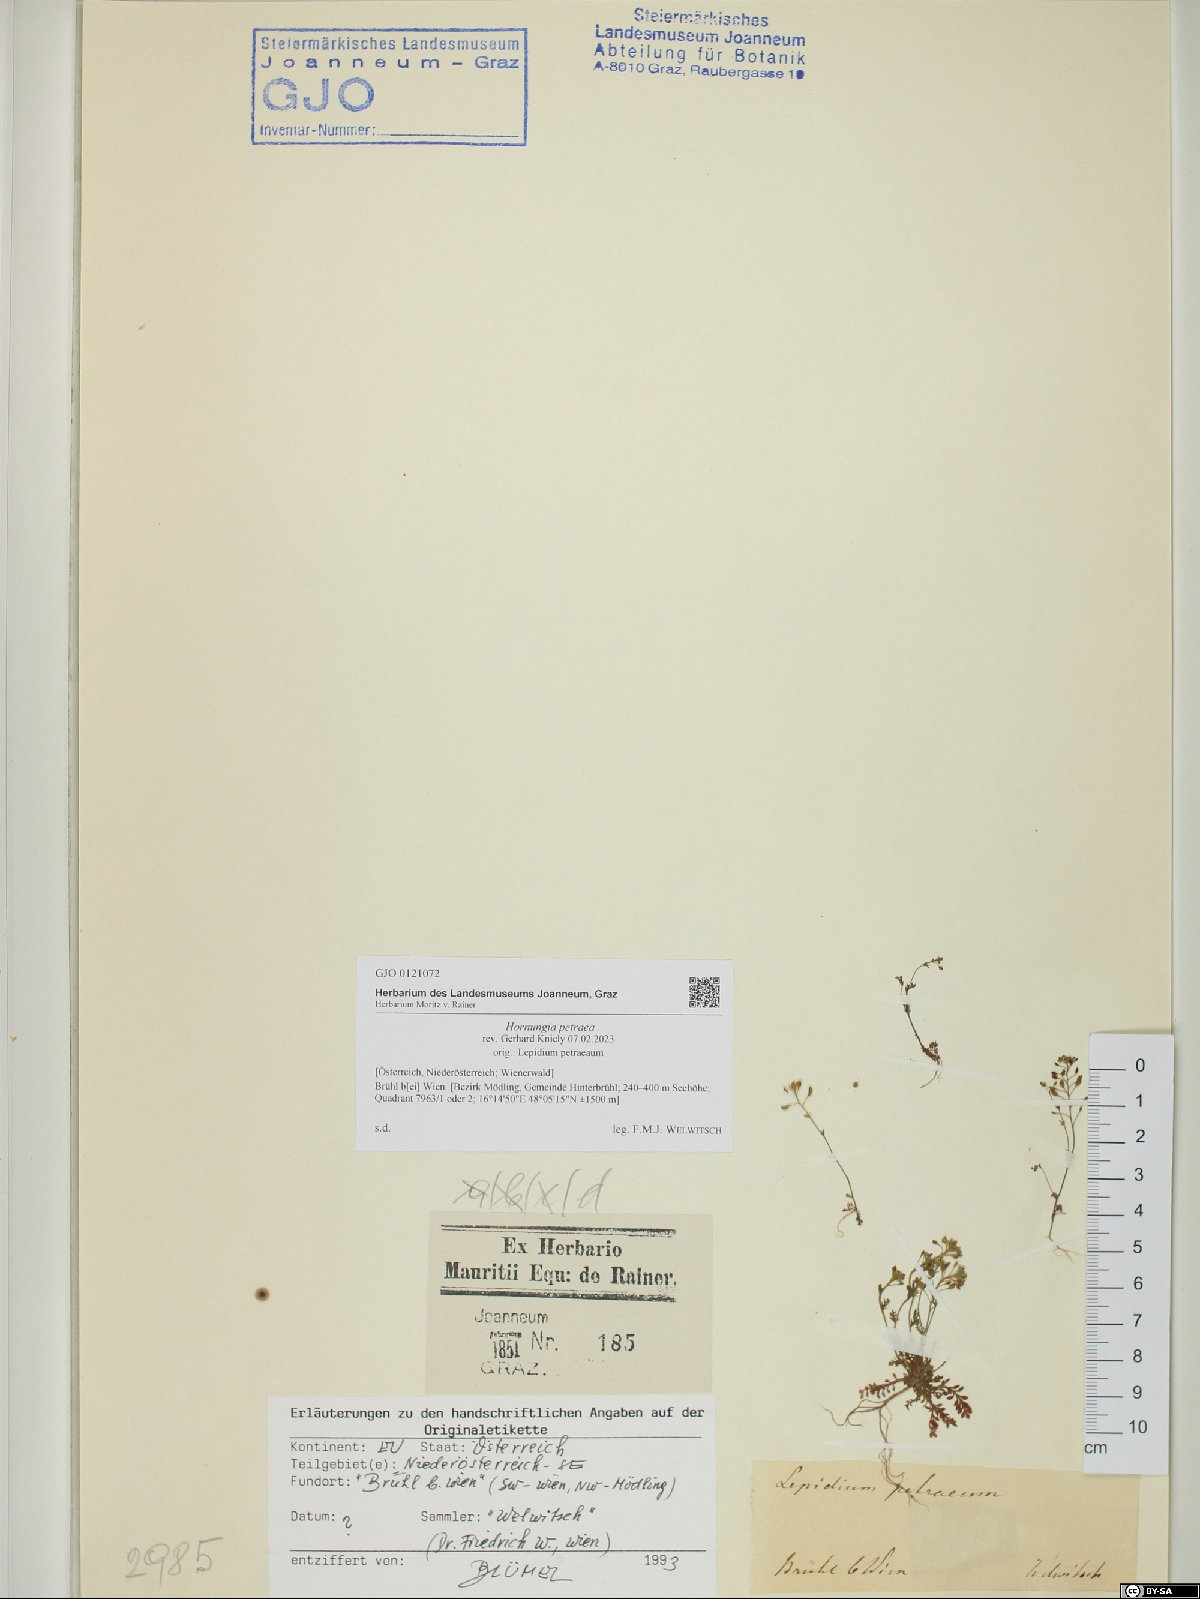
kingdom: Plantae
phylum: Tracheophyta
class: Magnoliopsida
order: Brassicales
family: Brassicaceae
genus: Hornungia
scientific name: Hornungia petraea
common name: Hutchinsia
